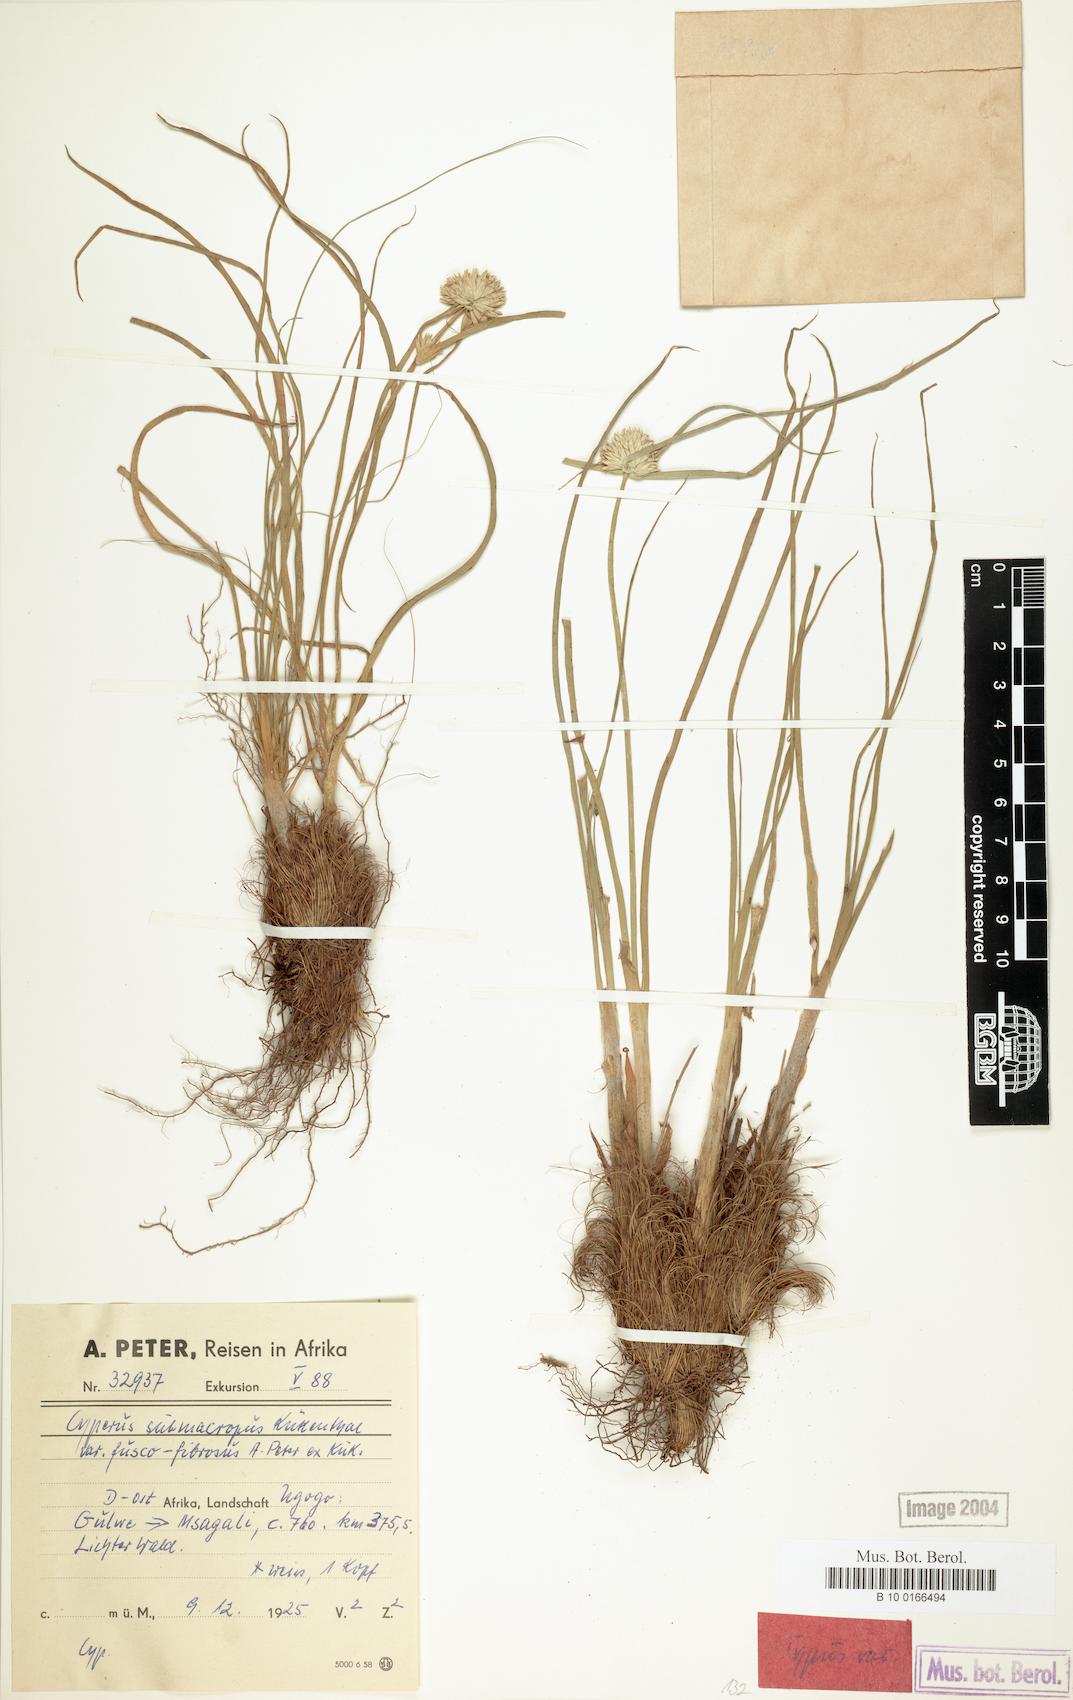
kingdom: Plantae
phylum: Tracheophyta
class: Liliopsida
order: Poales
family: Cyperaceae
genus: Cyperus
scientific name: Cyperus mollipes
